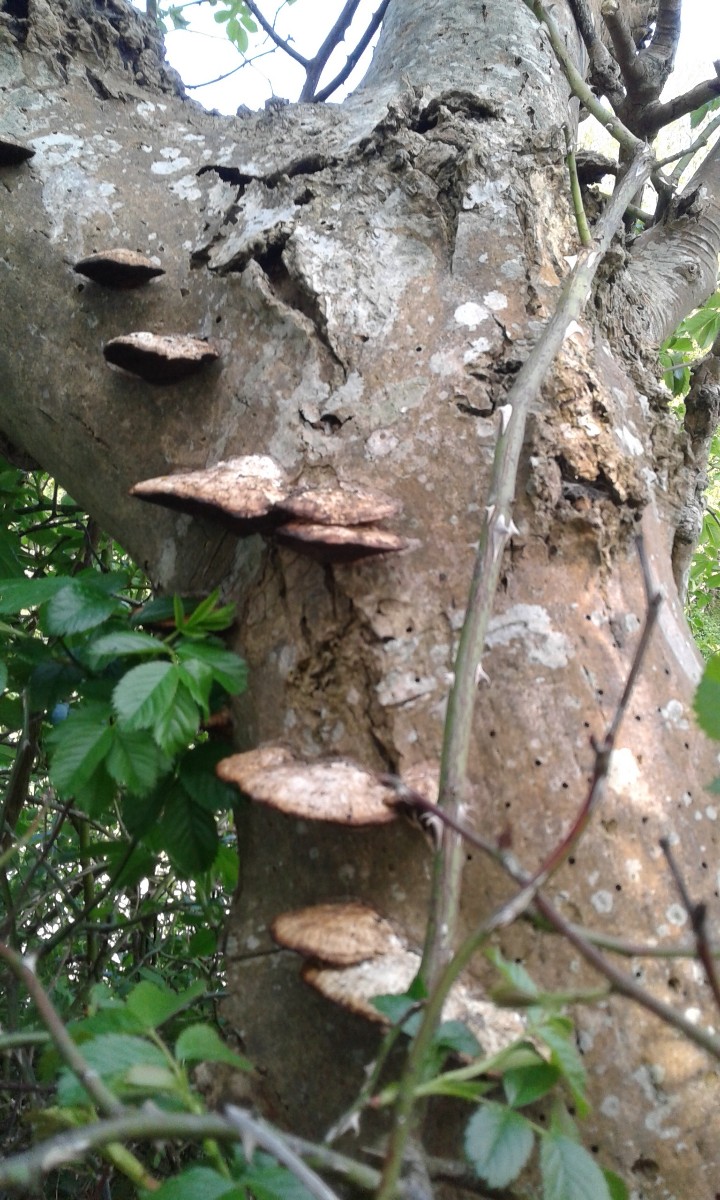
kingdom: Fungi
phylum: Basidiomycota
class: Agaricomycetes
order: Polyporales
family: Polyporaceae
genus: Daedaleopsis
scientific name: Daedaleopsis confragosa
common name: rødmende læderporesvamp
